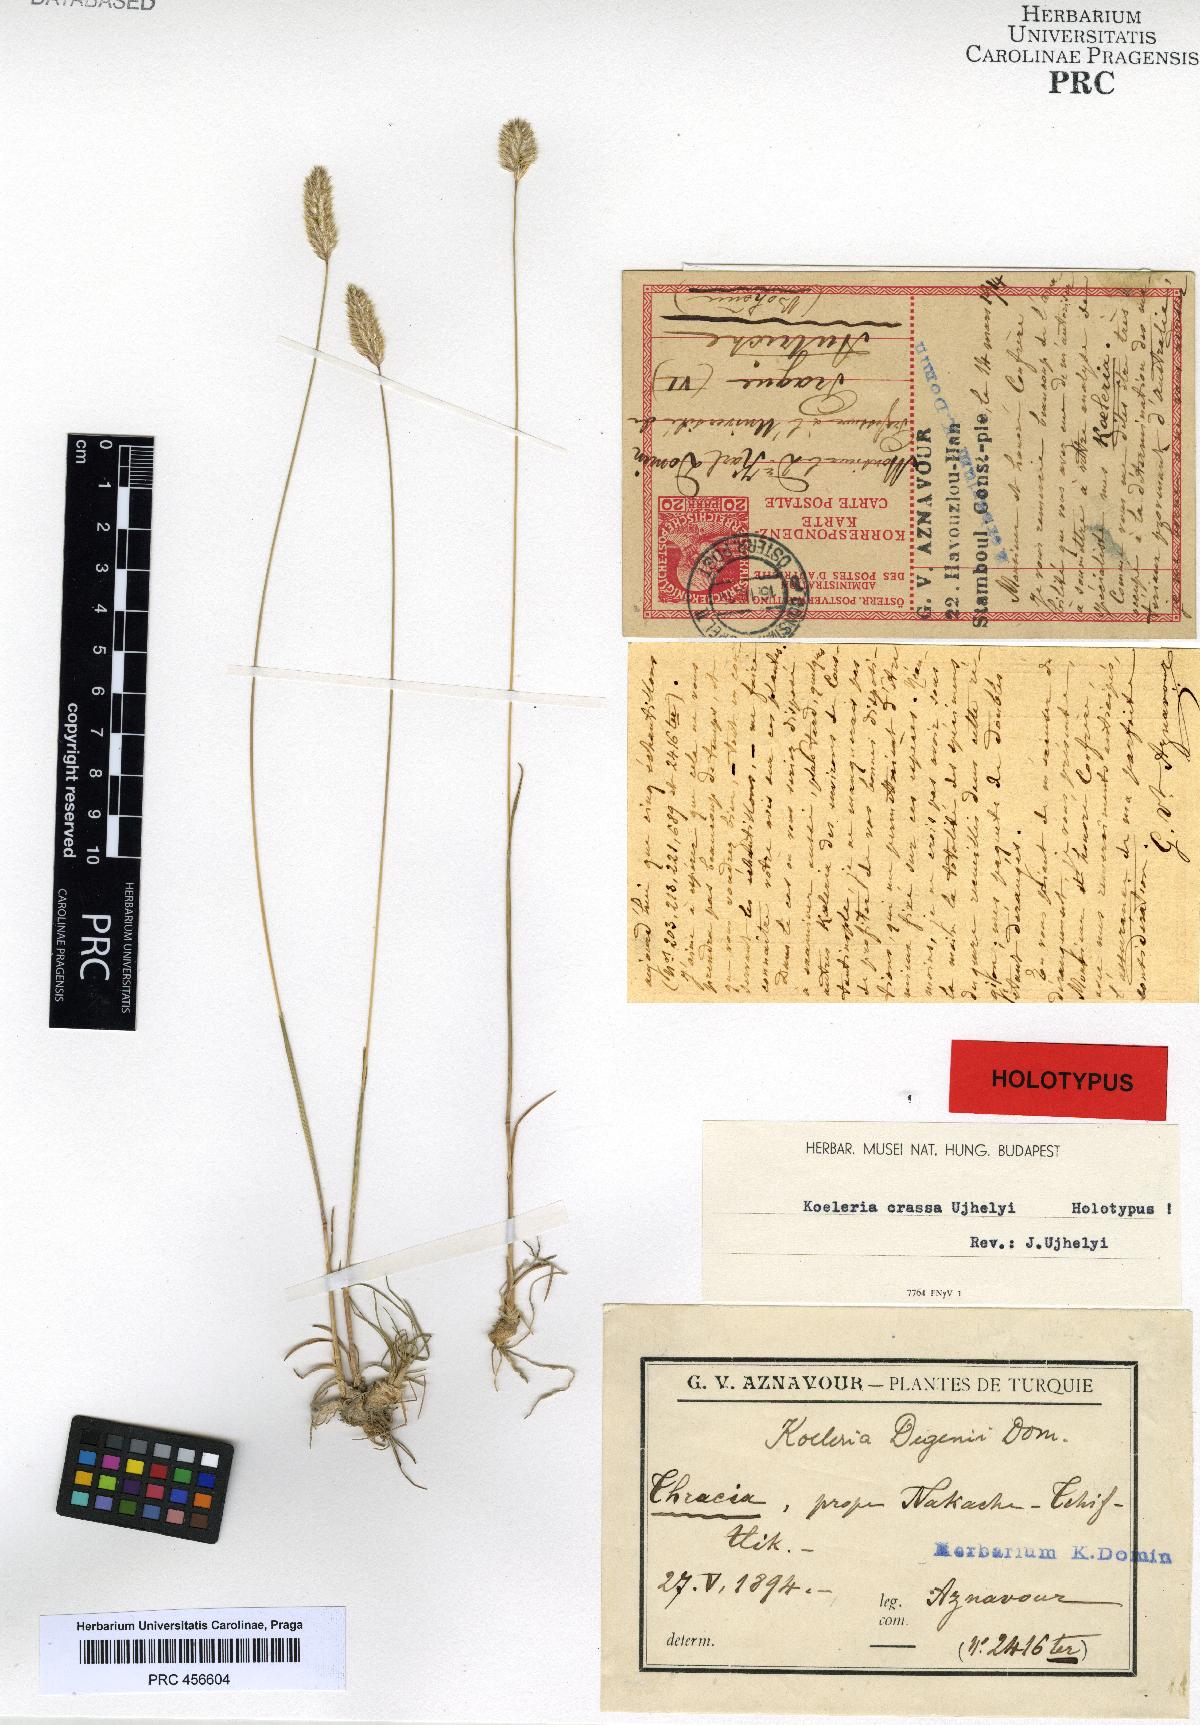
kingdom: Plantae
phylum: Tracheophyta
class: Liliopsida
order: Poales
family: Poaceae
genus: Koeleria
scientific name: Koeleria splendens
